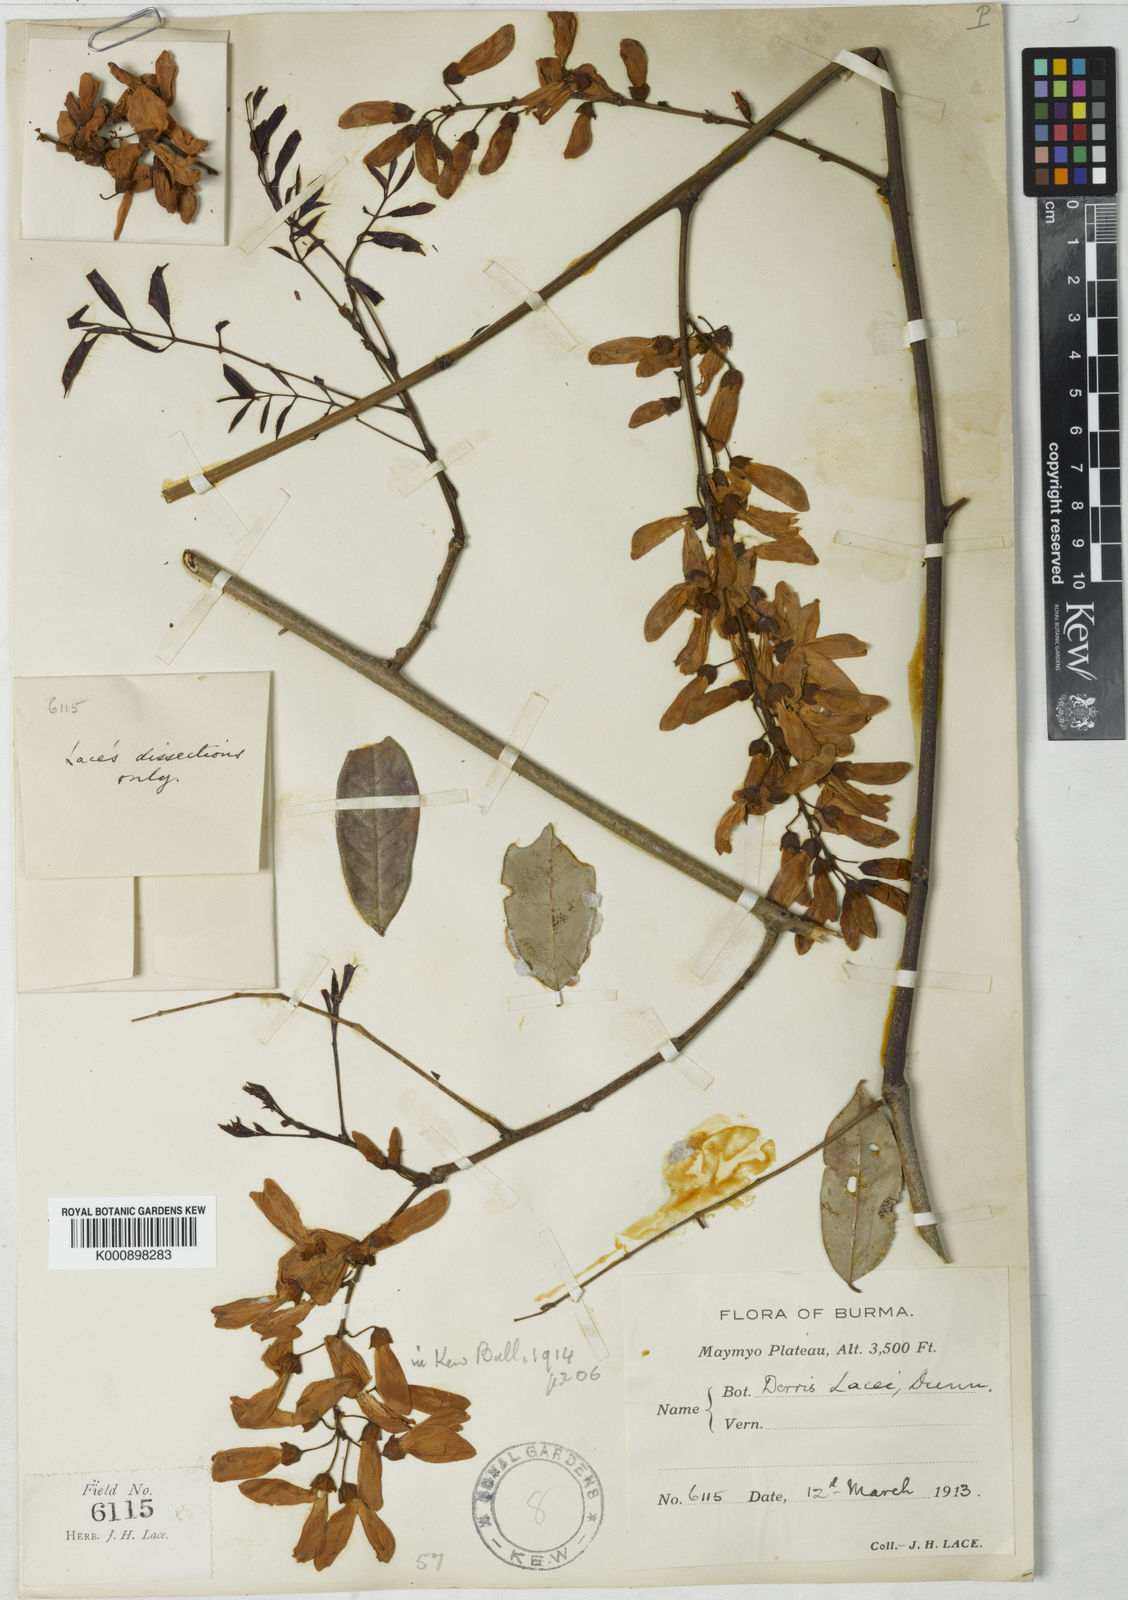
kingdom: Plantae
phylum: Tracheophyta
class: Magnoliopsida
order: Fabales
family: Fabaceae
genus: Derris
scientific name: Derris lacei
